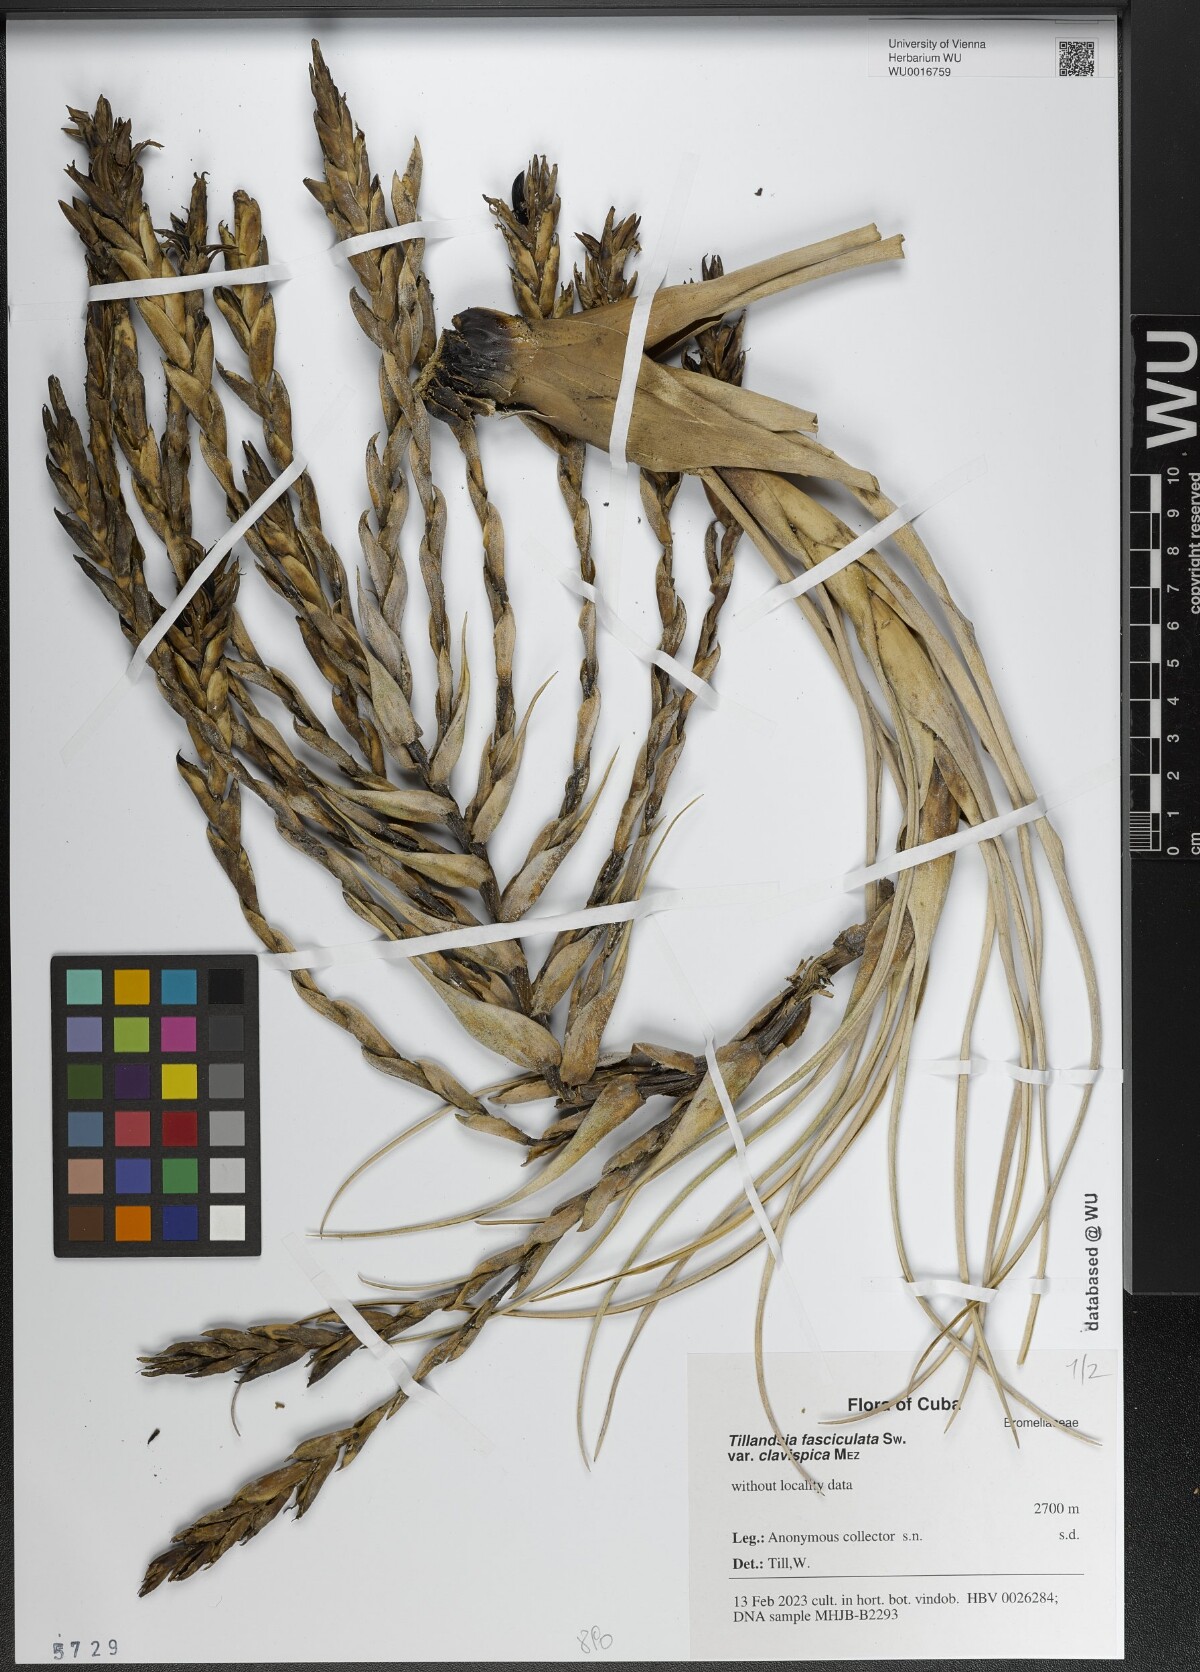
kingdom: Plantae
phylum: Tracheophyta
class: Liliopsida
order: Poales
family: Bromeliaceae
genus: Tillandsia
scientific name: Tillandsia fasciculata
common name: Giant airplant
